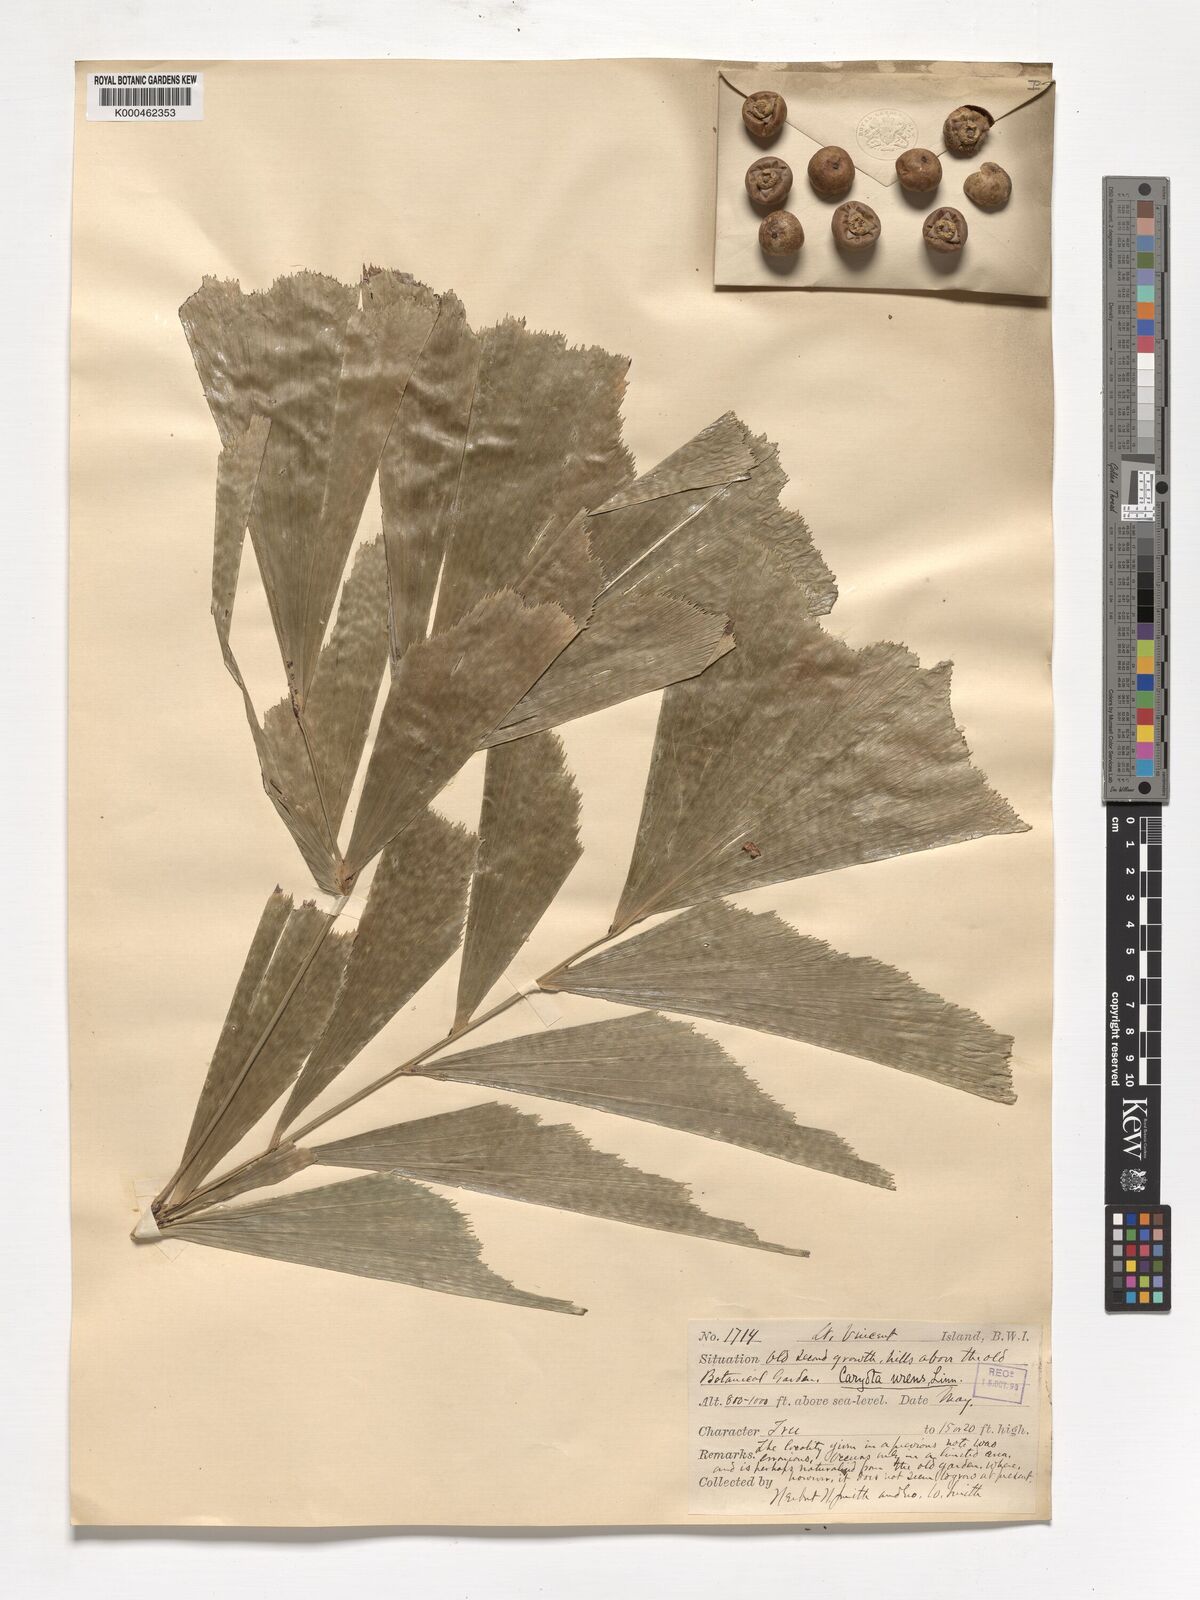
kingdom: Plantae
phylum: Tracheophyta
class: Liliopsida
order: Arecales
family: Arecaceae
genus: Caryota
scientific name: Caryota urens
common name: Jaggery palm
